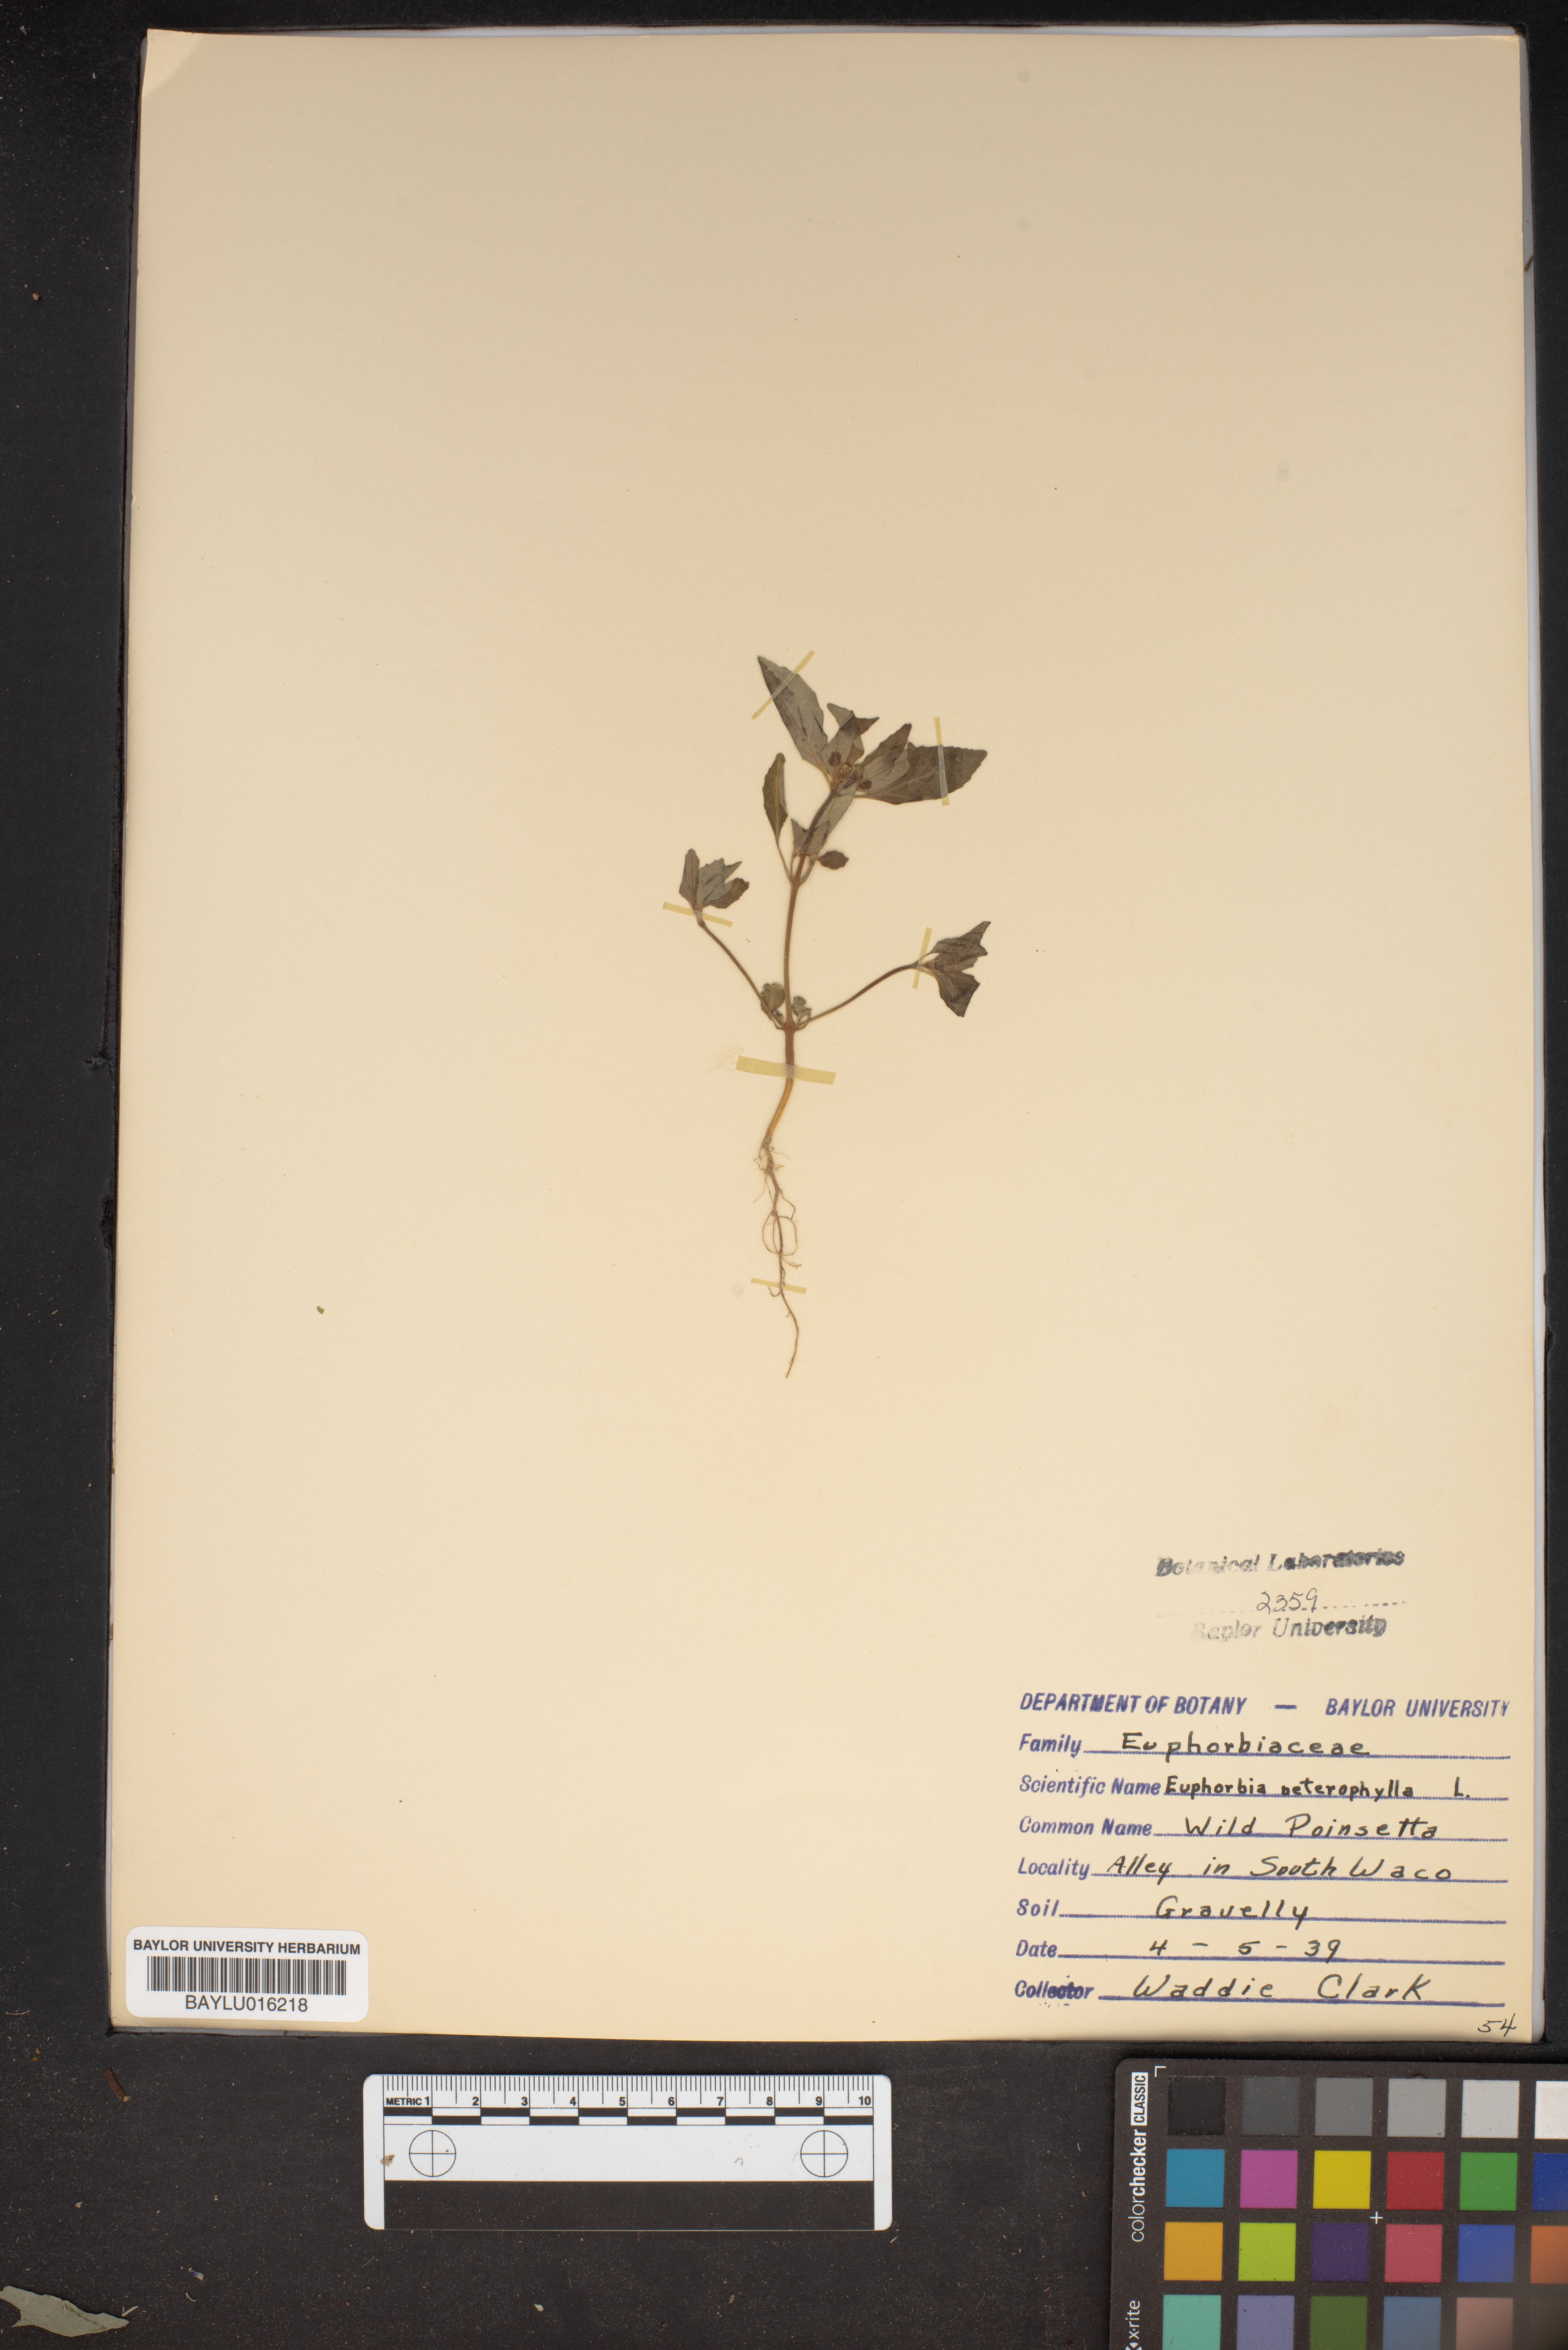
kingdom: Plantae
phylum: Tracheophyta
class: Magnoliopsida
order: Malpighiales
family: Euphorbiaceae
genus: Euphorbia
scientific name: Euphorbia heterophylla
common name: Mexican fireplant
